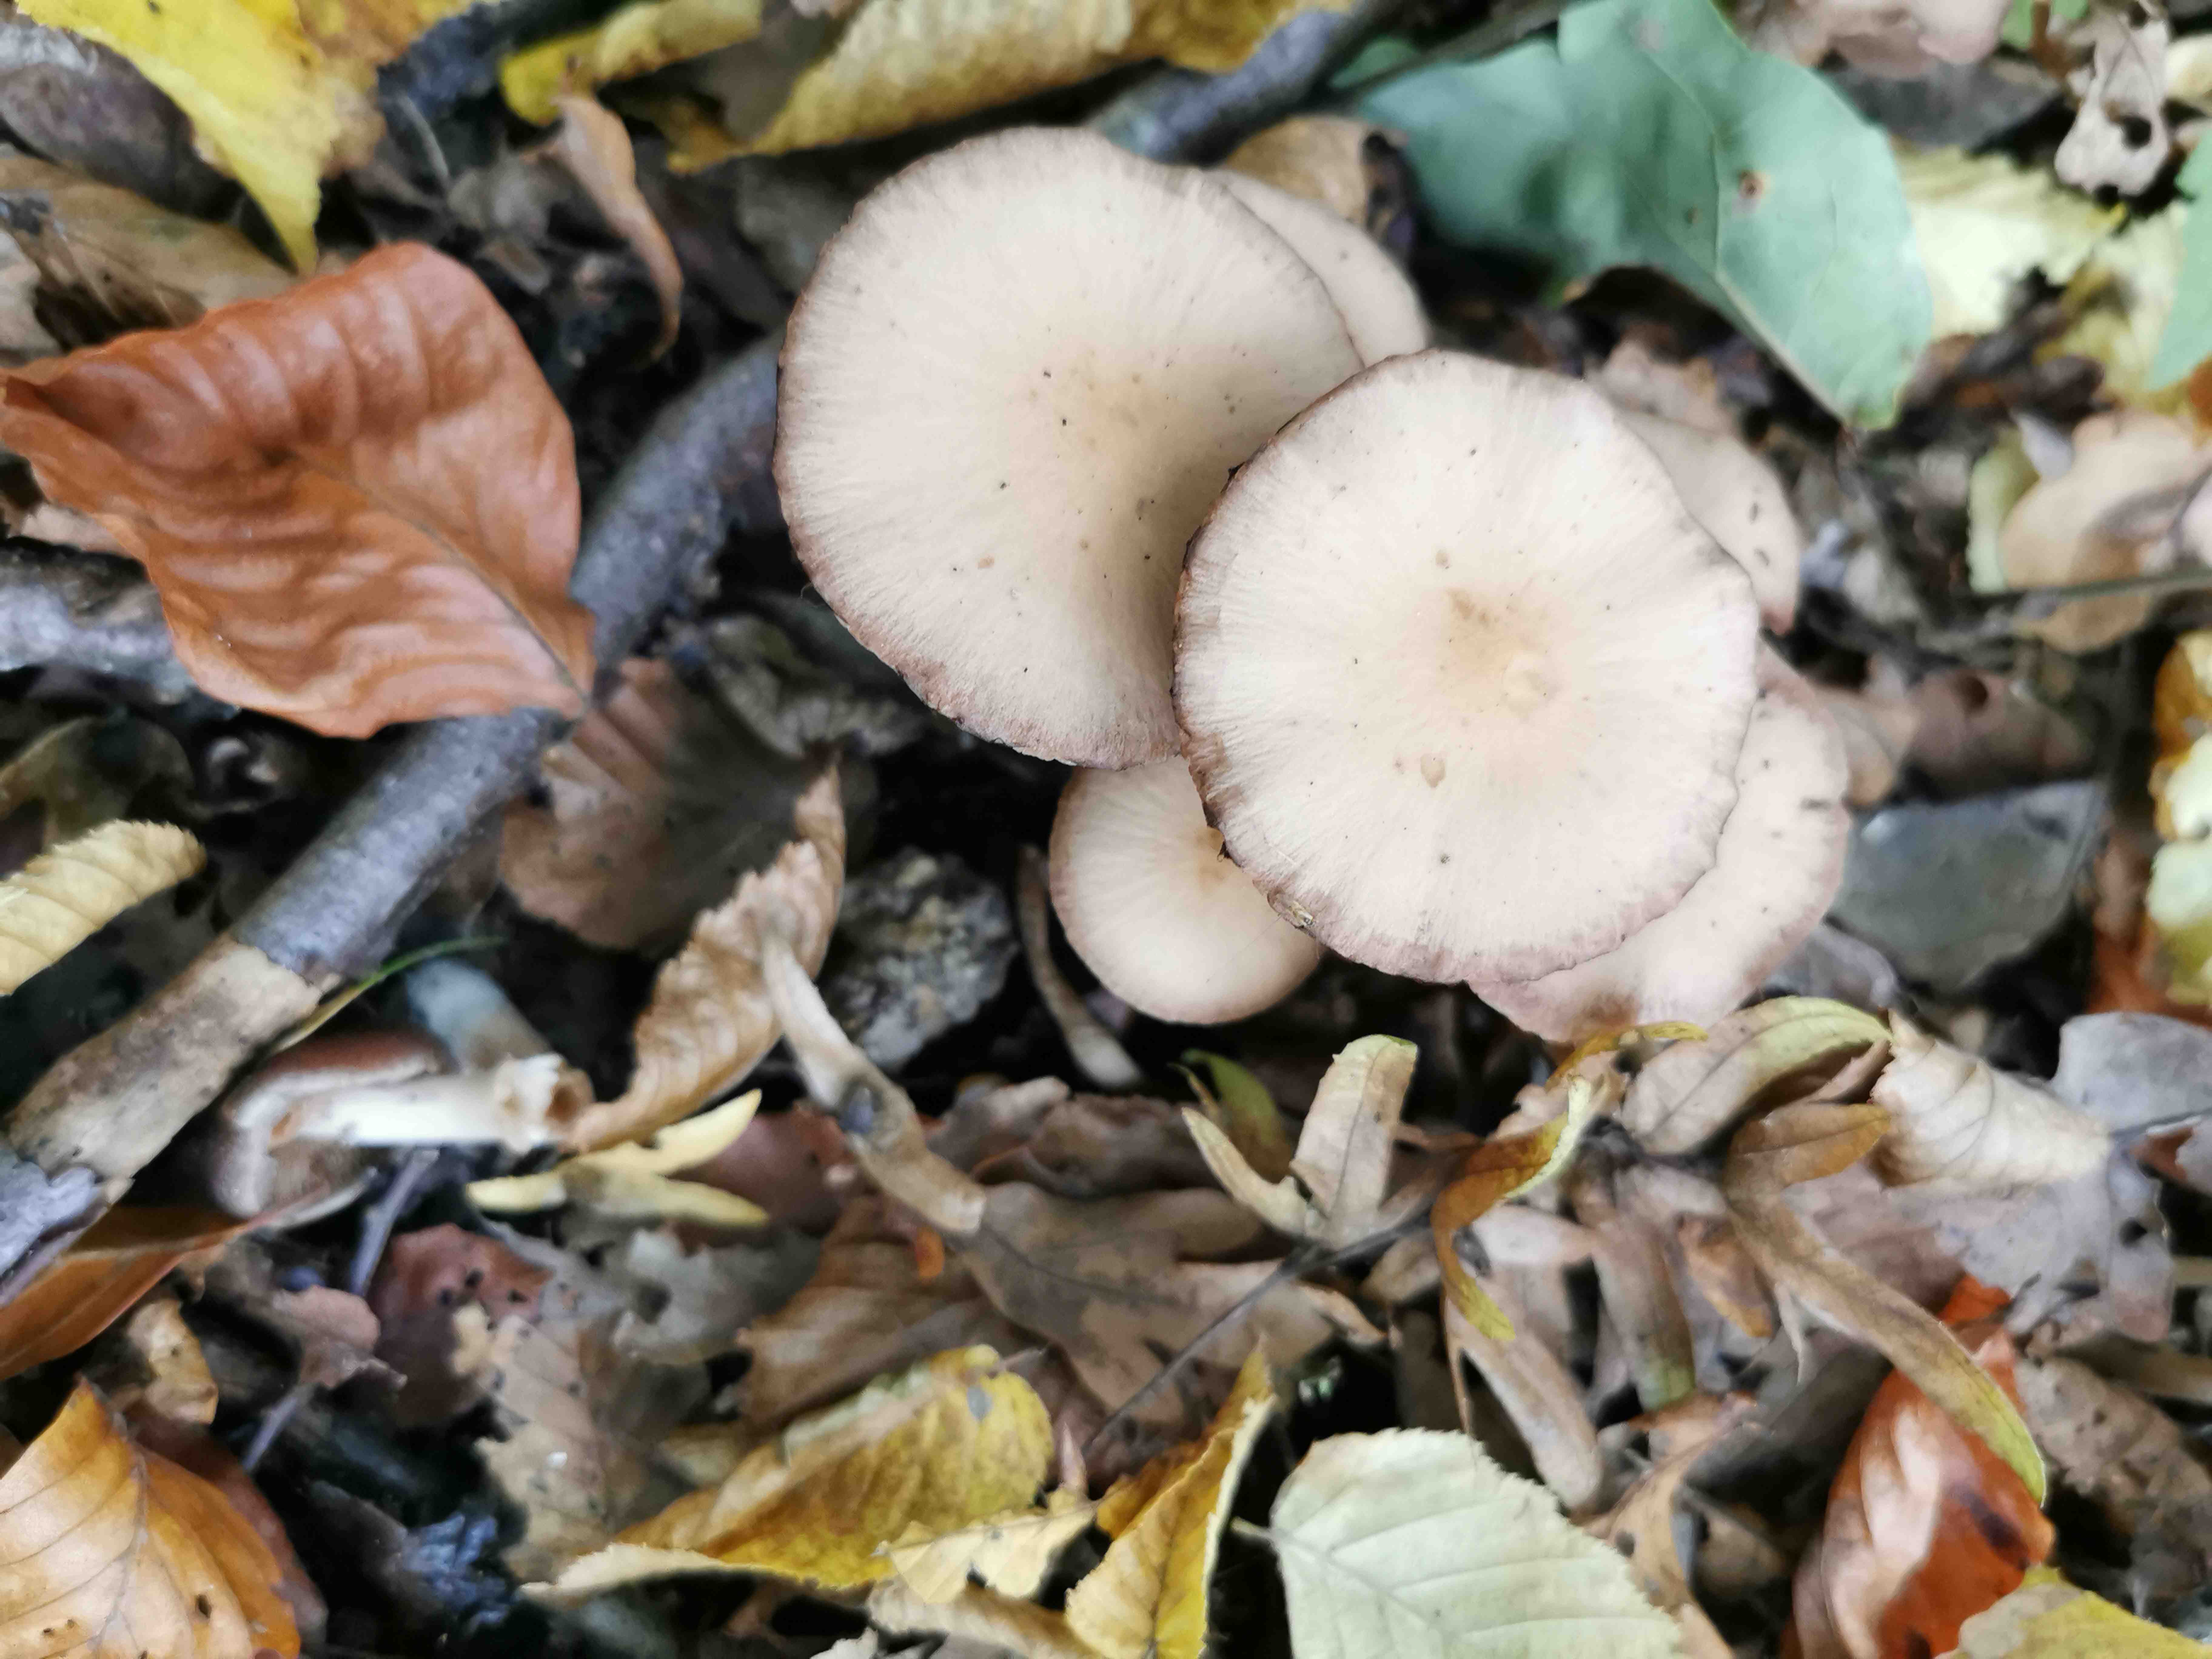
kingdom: Fungi
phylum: Basidiomycota
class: Agaricomycetes
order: Agaricales
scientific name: Agaricales
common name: champignonordenen
